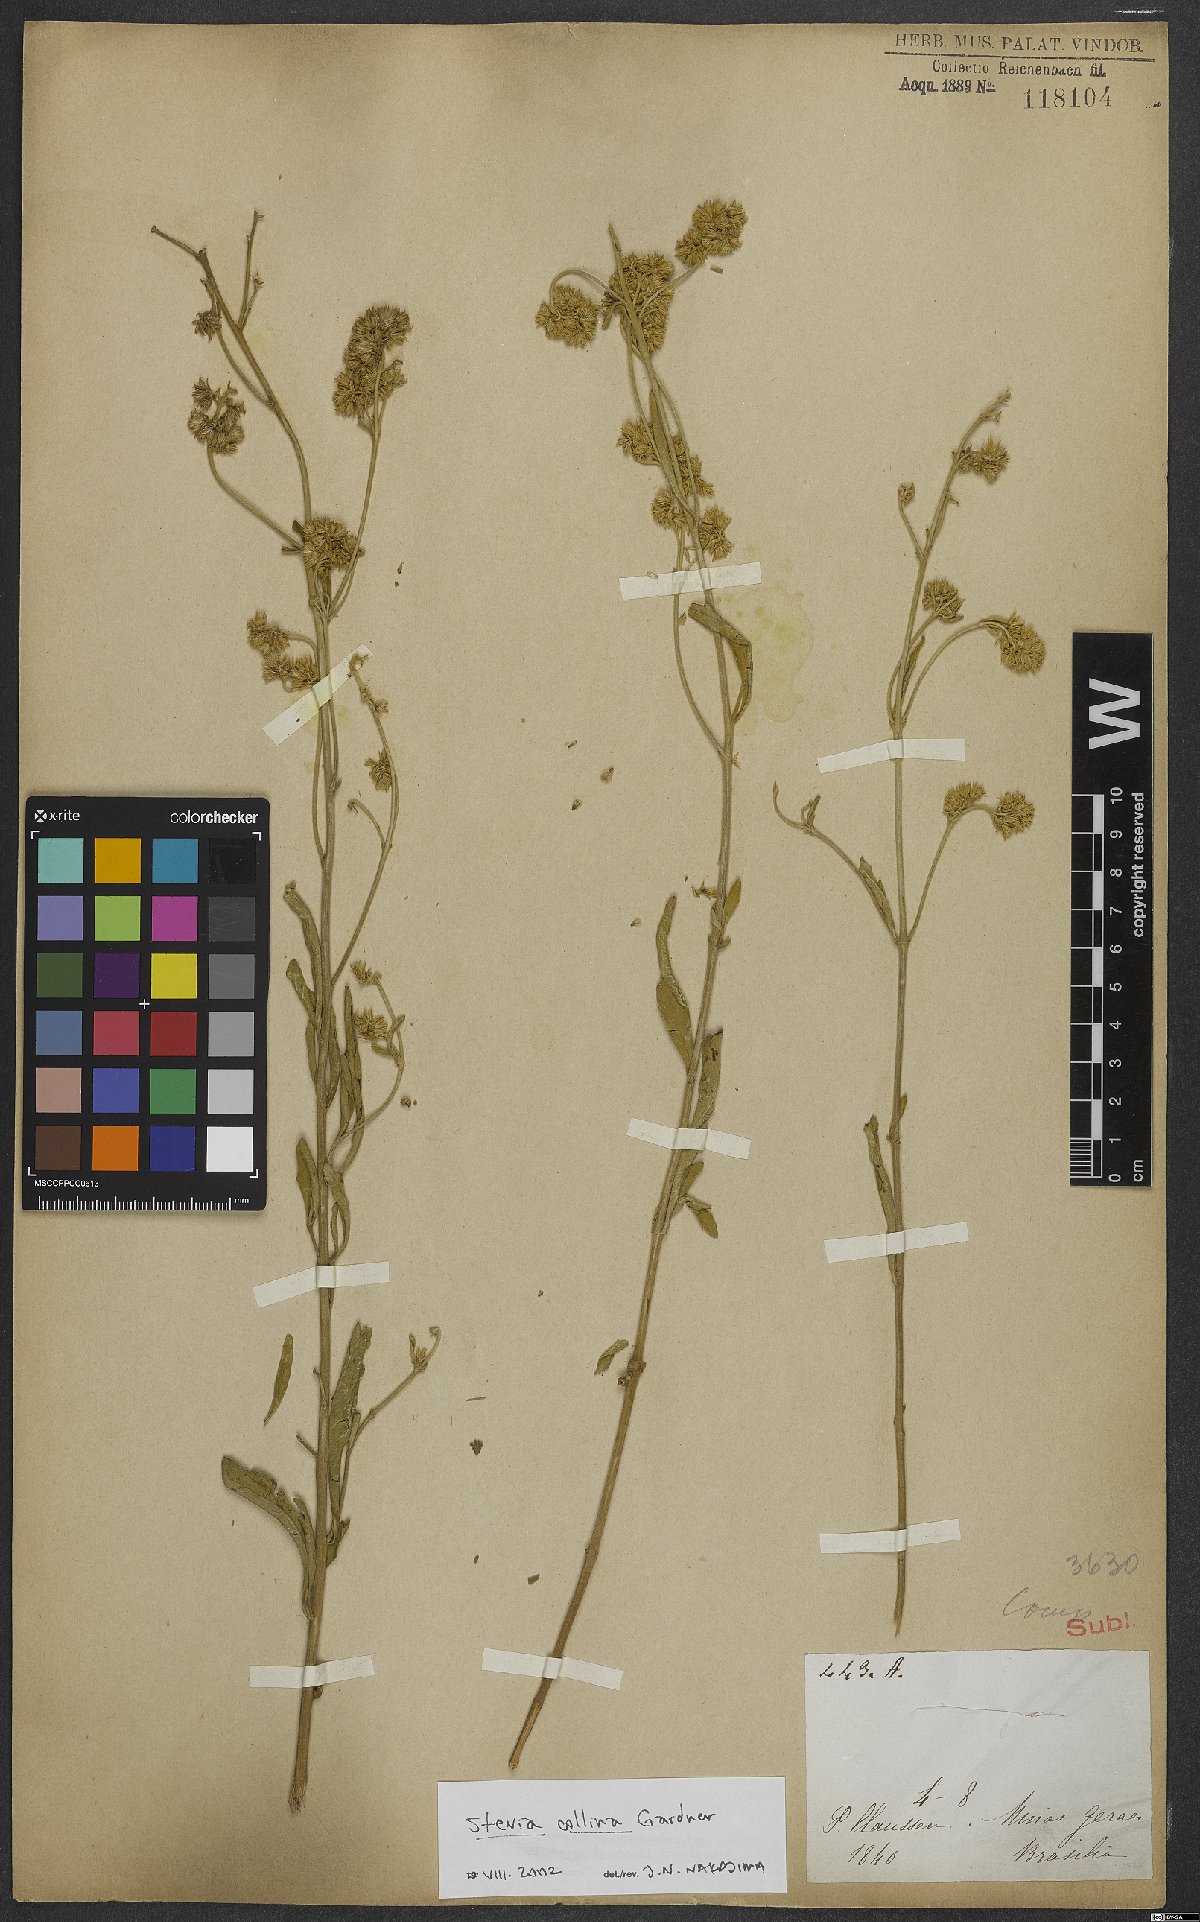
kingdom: Plantae
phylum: Tracheophyta
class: Magnoliopsida
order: Asterales
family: Asteraceae
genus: Stevia
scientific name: Stevia collina
